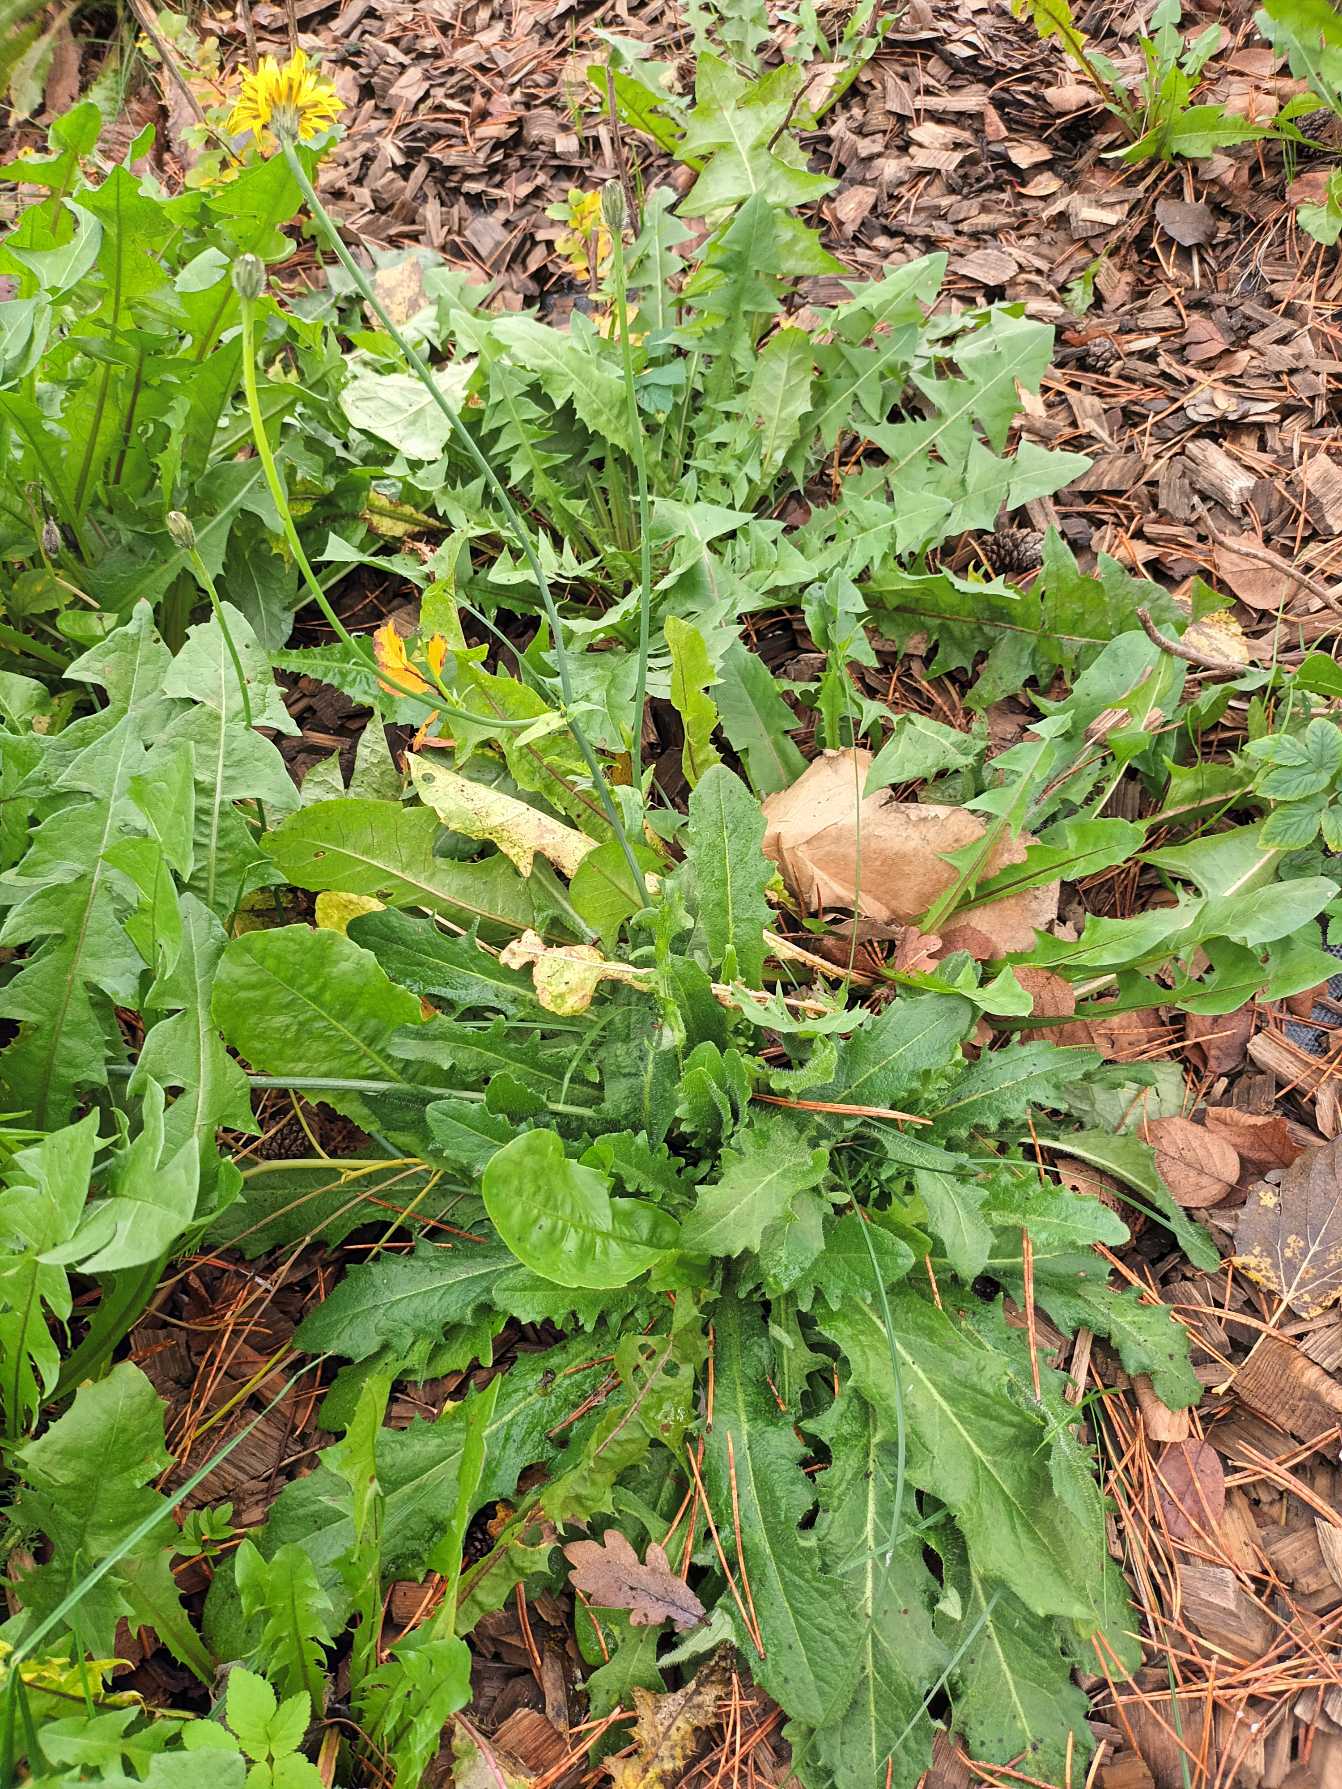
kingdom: Plantae
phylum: Tracheophyta
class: Magnoliopsida
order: Asterales
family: Asteraceae
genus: Hypochaeris
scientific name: Hypochaeris radicata
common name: Almindelig kongepen
